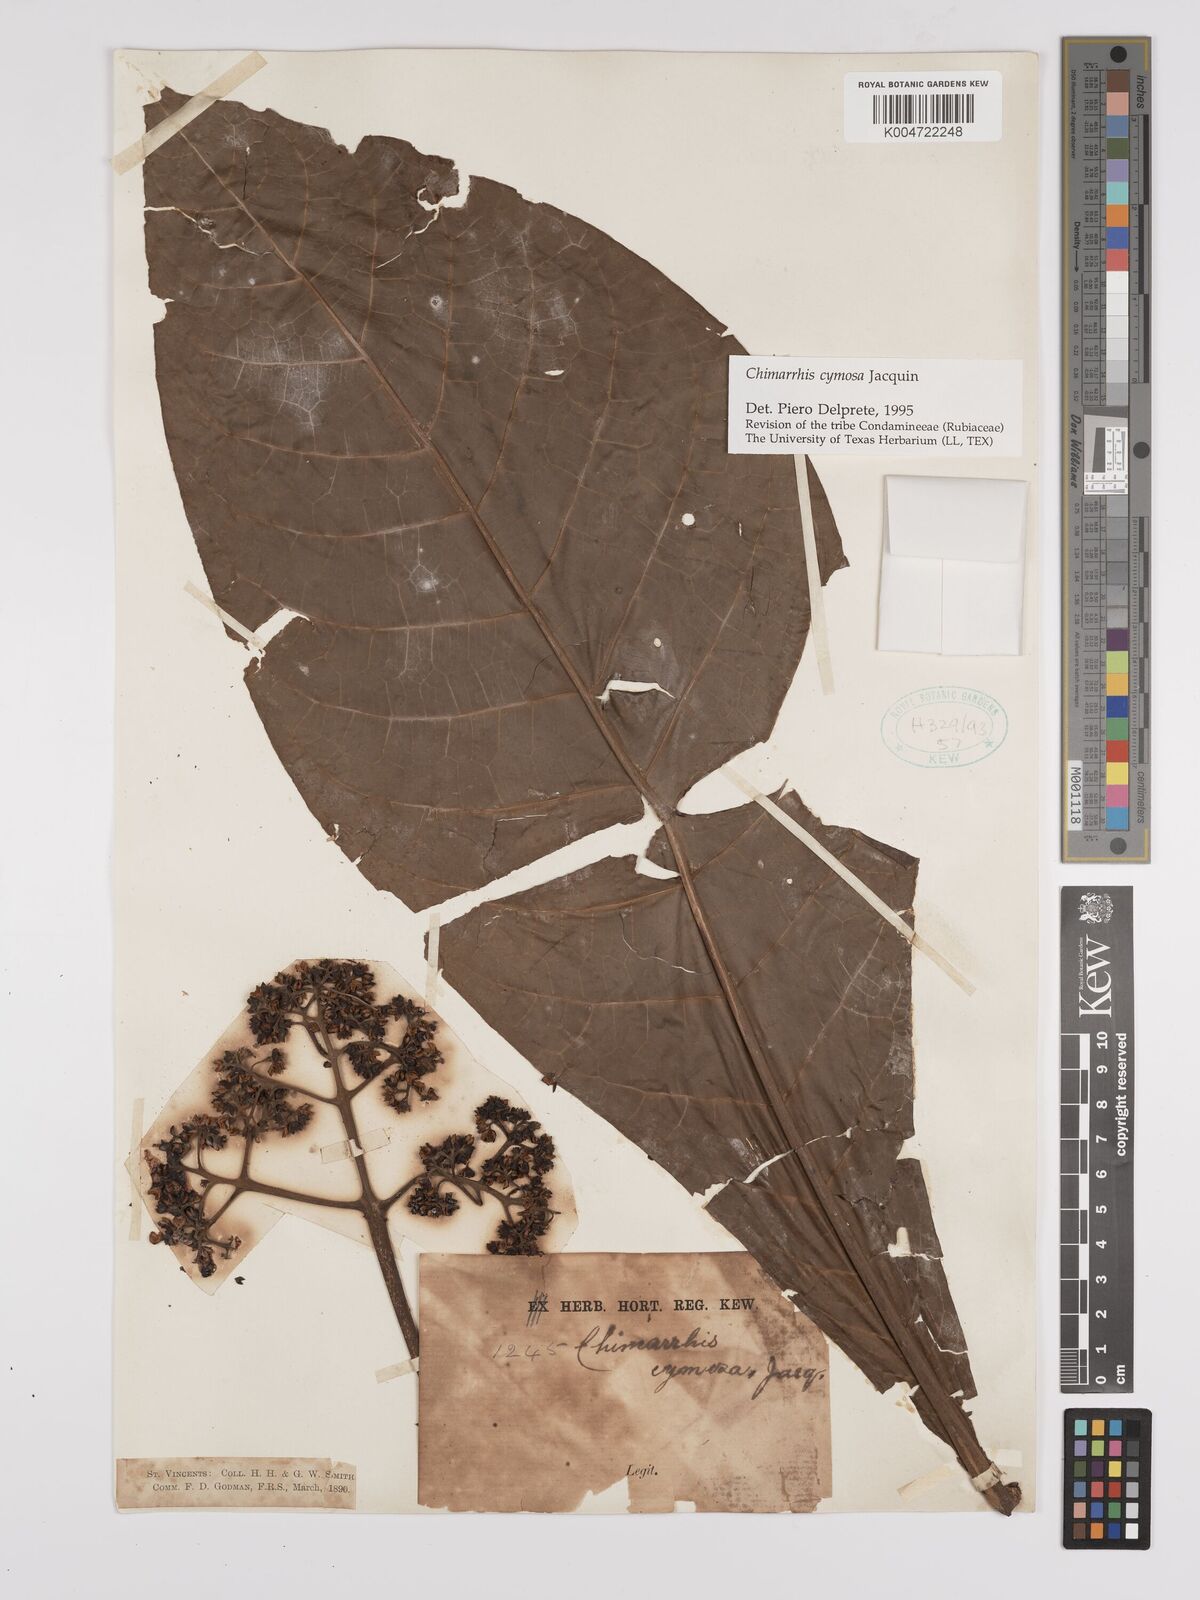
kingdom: Plantae
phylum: Tracheophyta
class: Magnoliopsida
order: Gentianales
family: Rubiaceae
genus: Chimarrhis
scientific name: Chimarrhis cymosa
